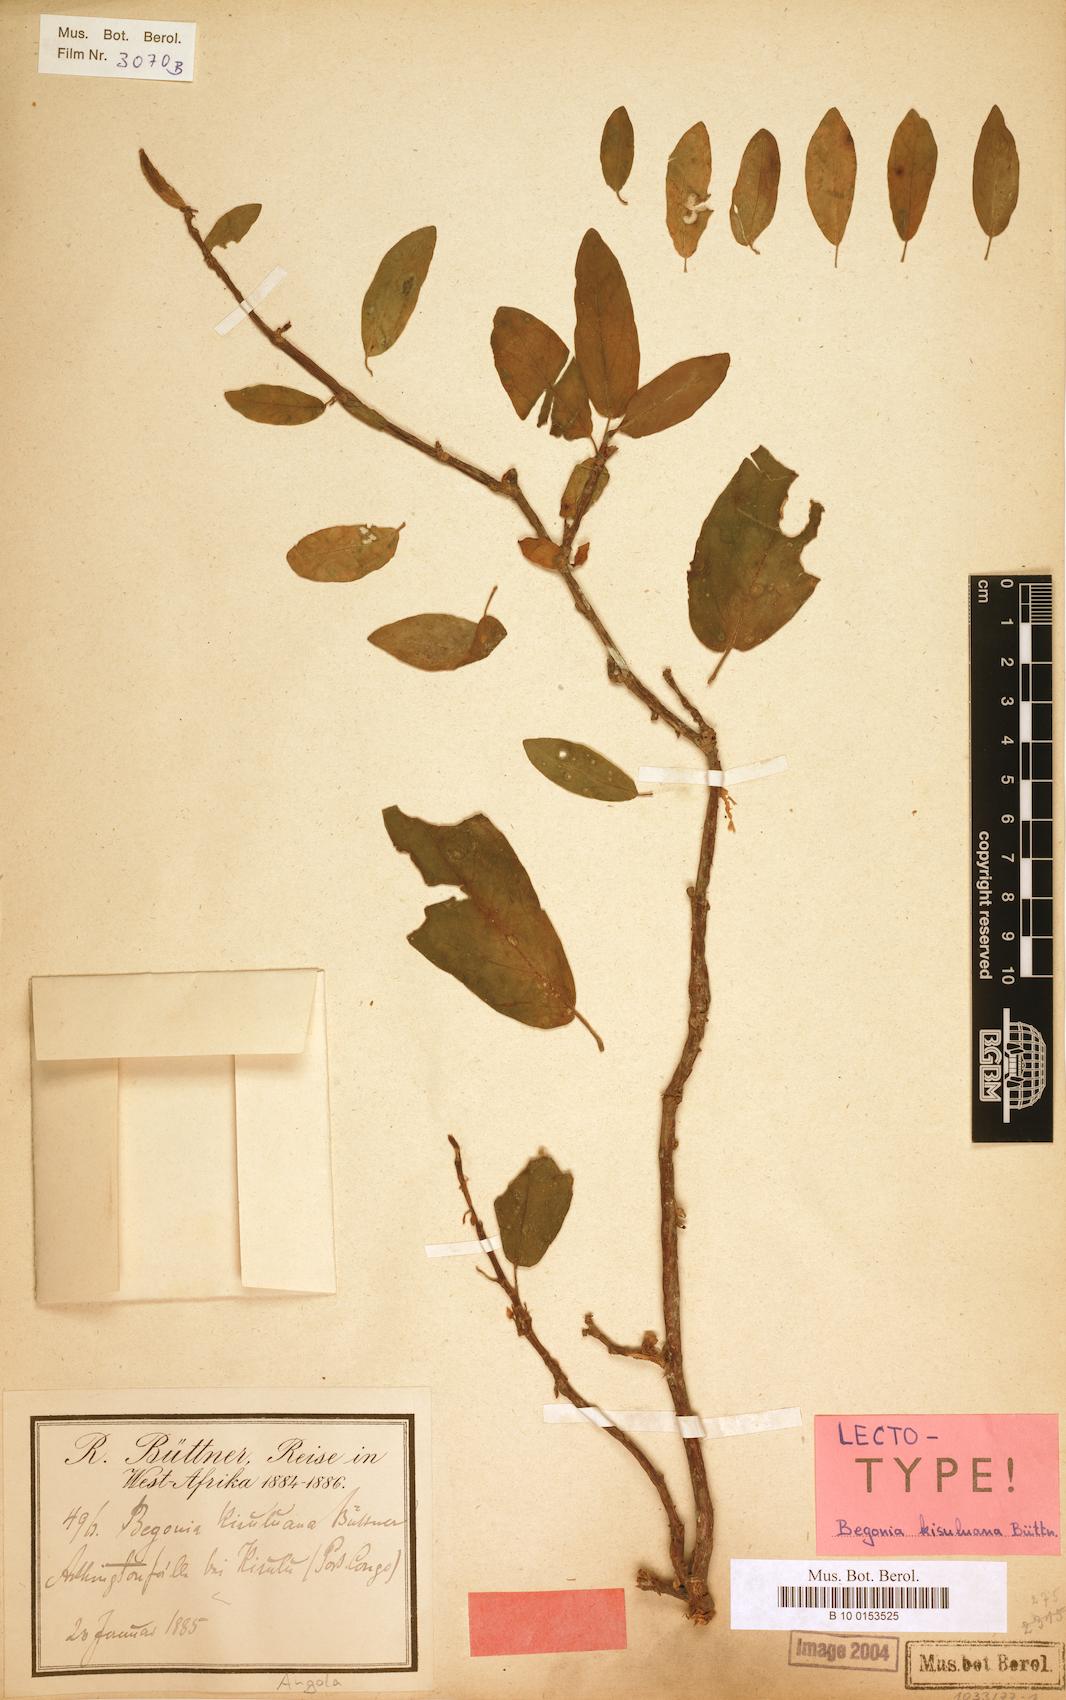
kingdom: Plantae
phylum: Tracheophyta
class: Magnoliopsida
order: Cucurbitales
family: Begoniaceae
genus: Begonia
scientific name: Begonia kisuluana
